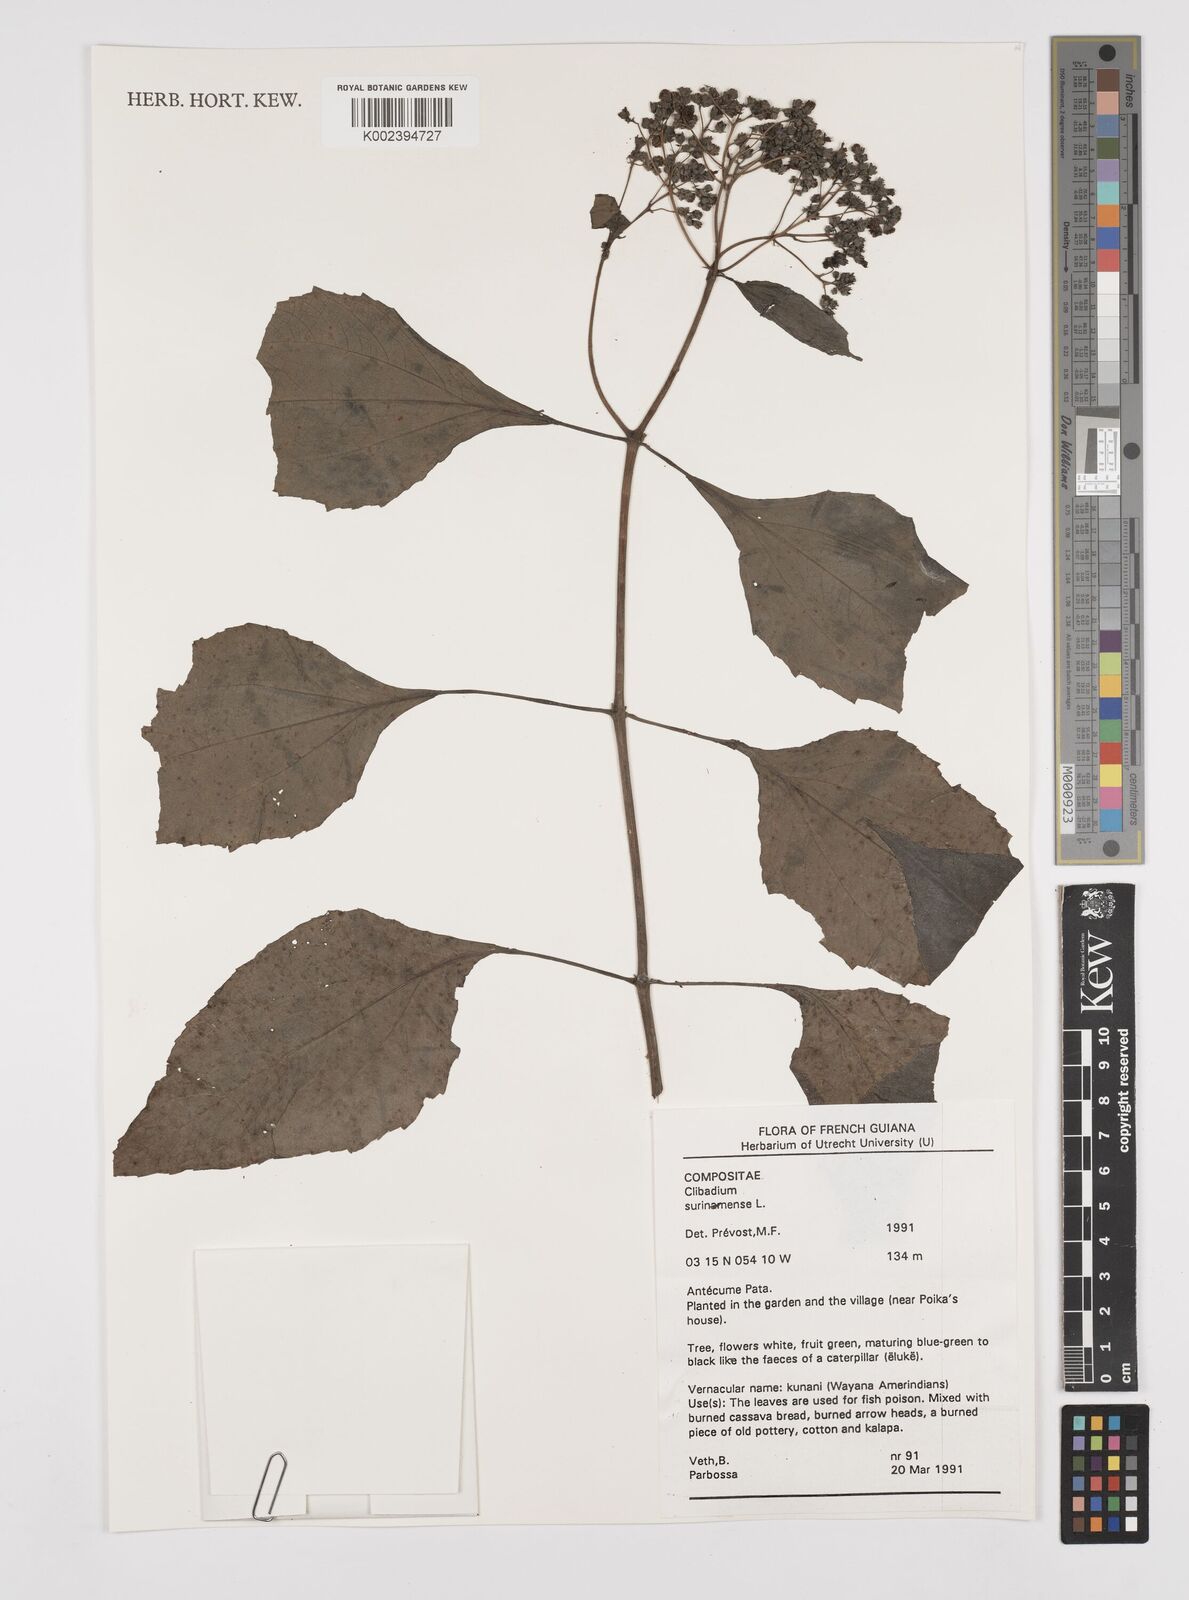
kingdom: Plantae
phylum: Tracheophyta
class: Magnoliopsida
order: Asterales
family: Asteraceae
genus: Clibadium
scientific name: Clibadium surinamense
